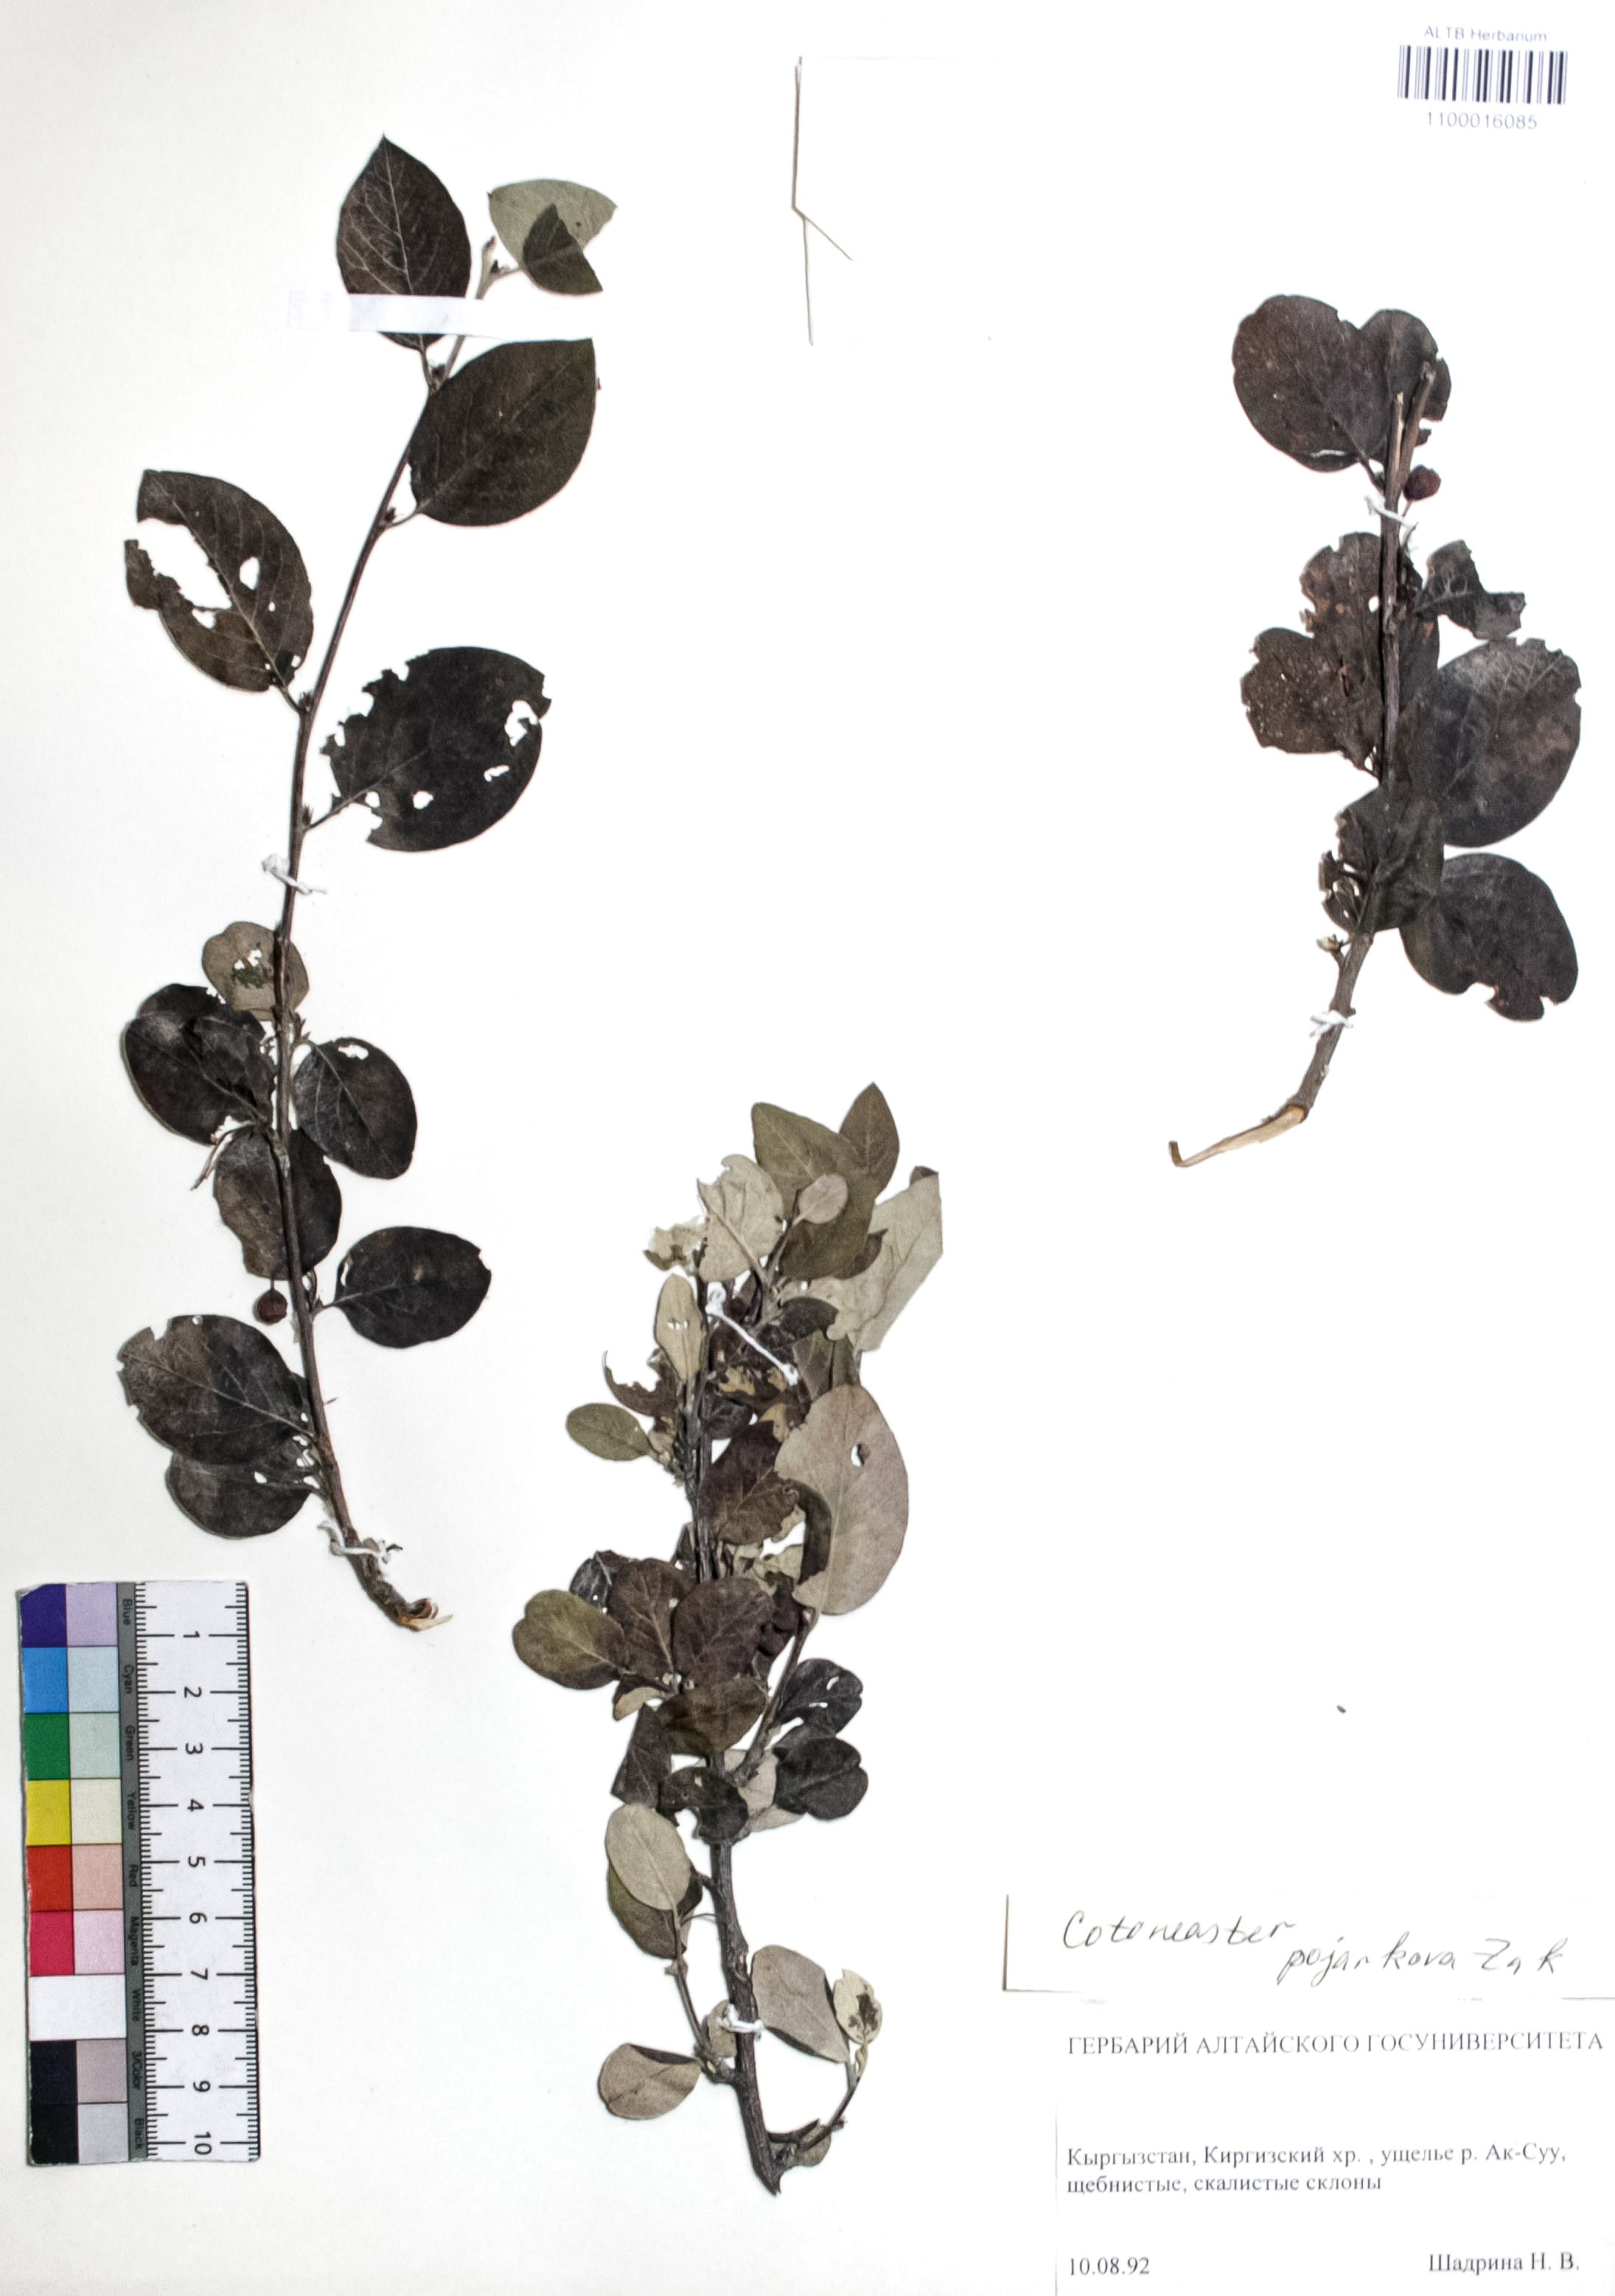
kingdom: Plantae
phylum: Tracheophyta
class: Magnoliopsida
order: Rosales
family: Rosaceae
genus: Cotoneaster
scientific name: Cotoneaster alatavicus
